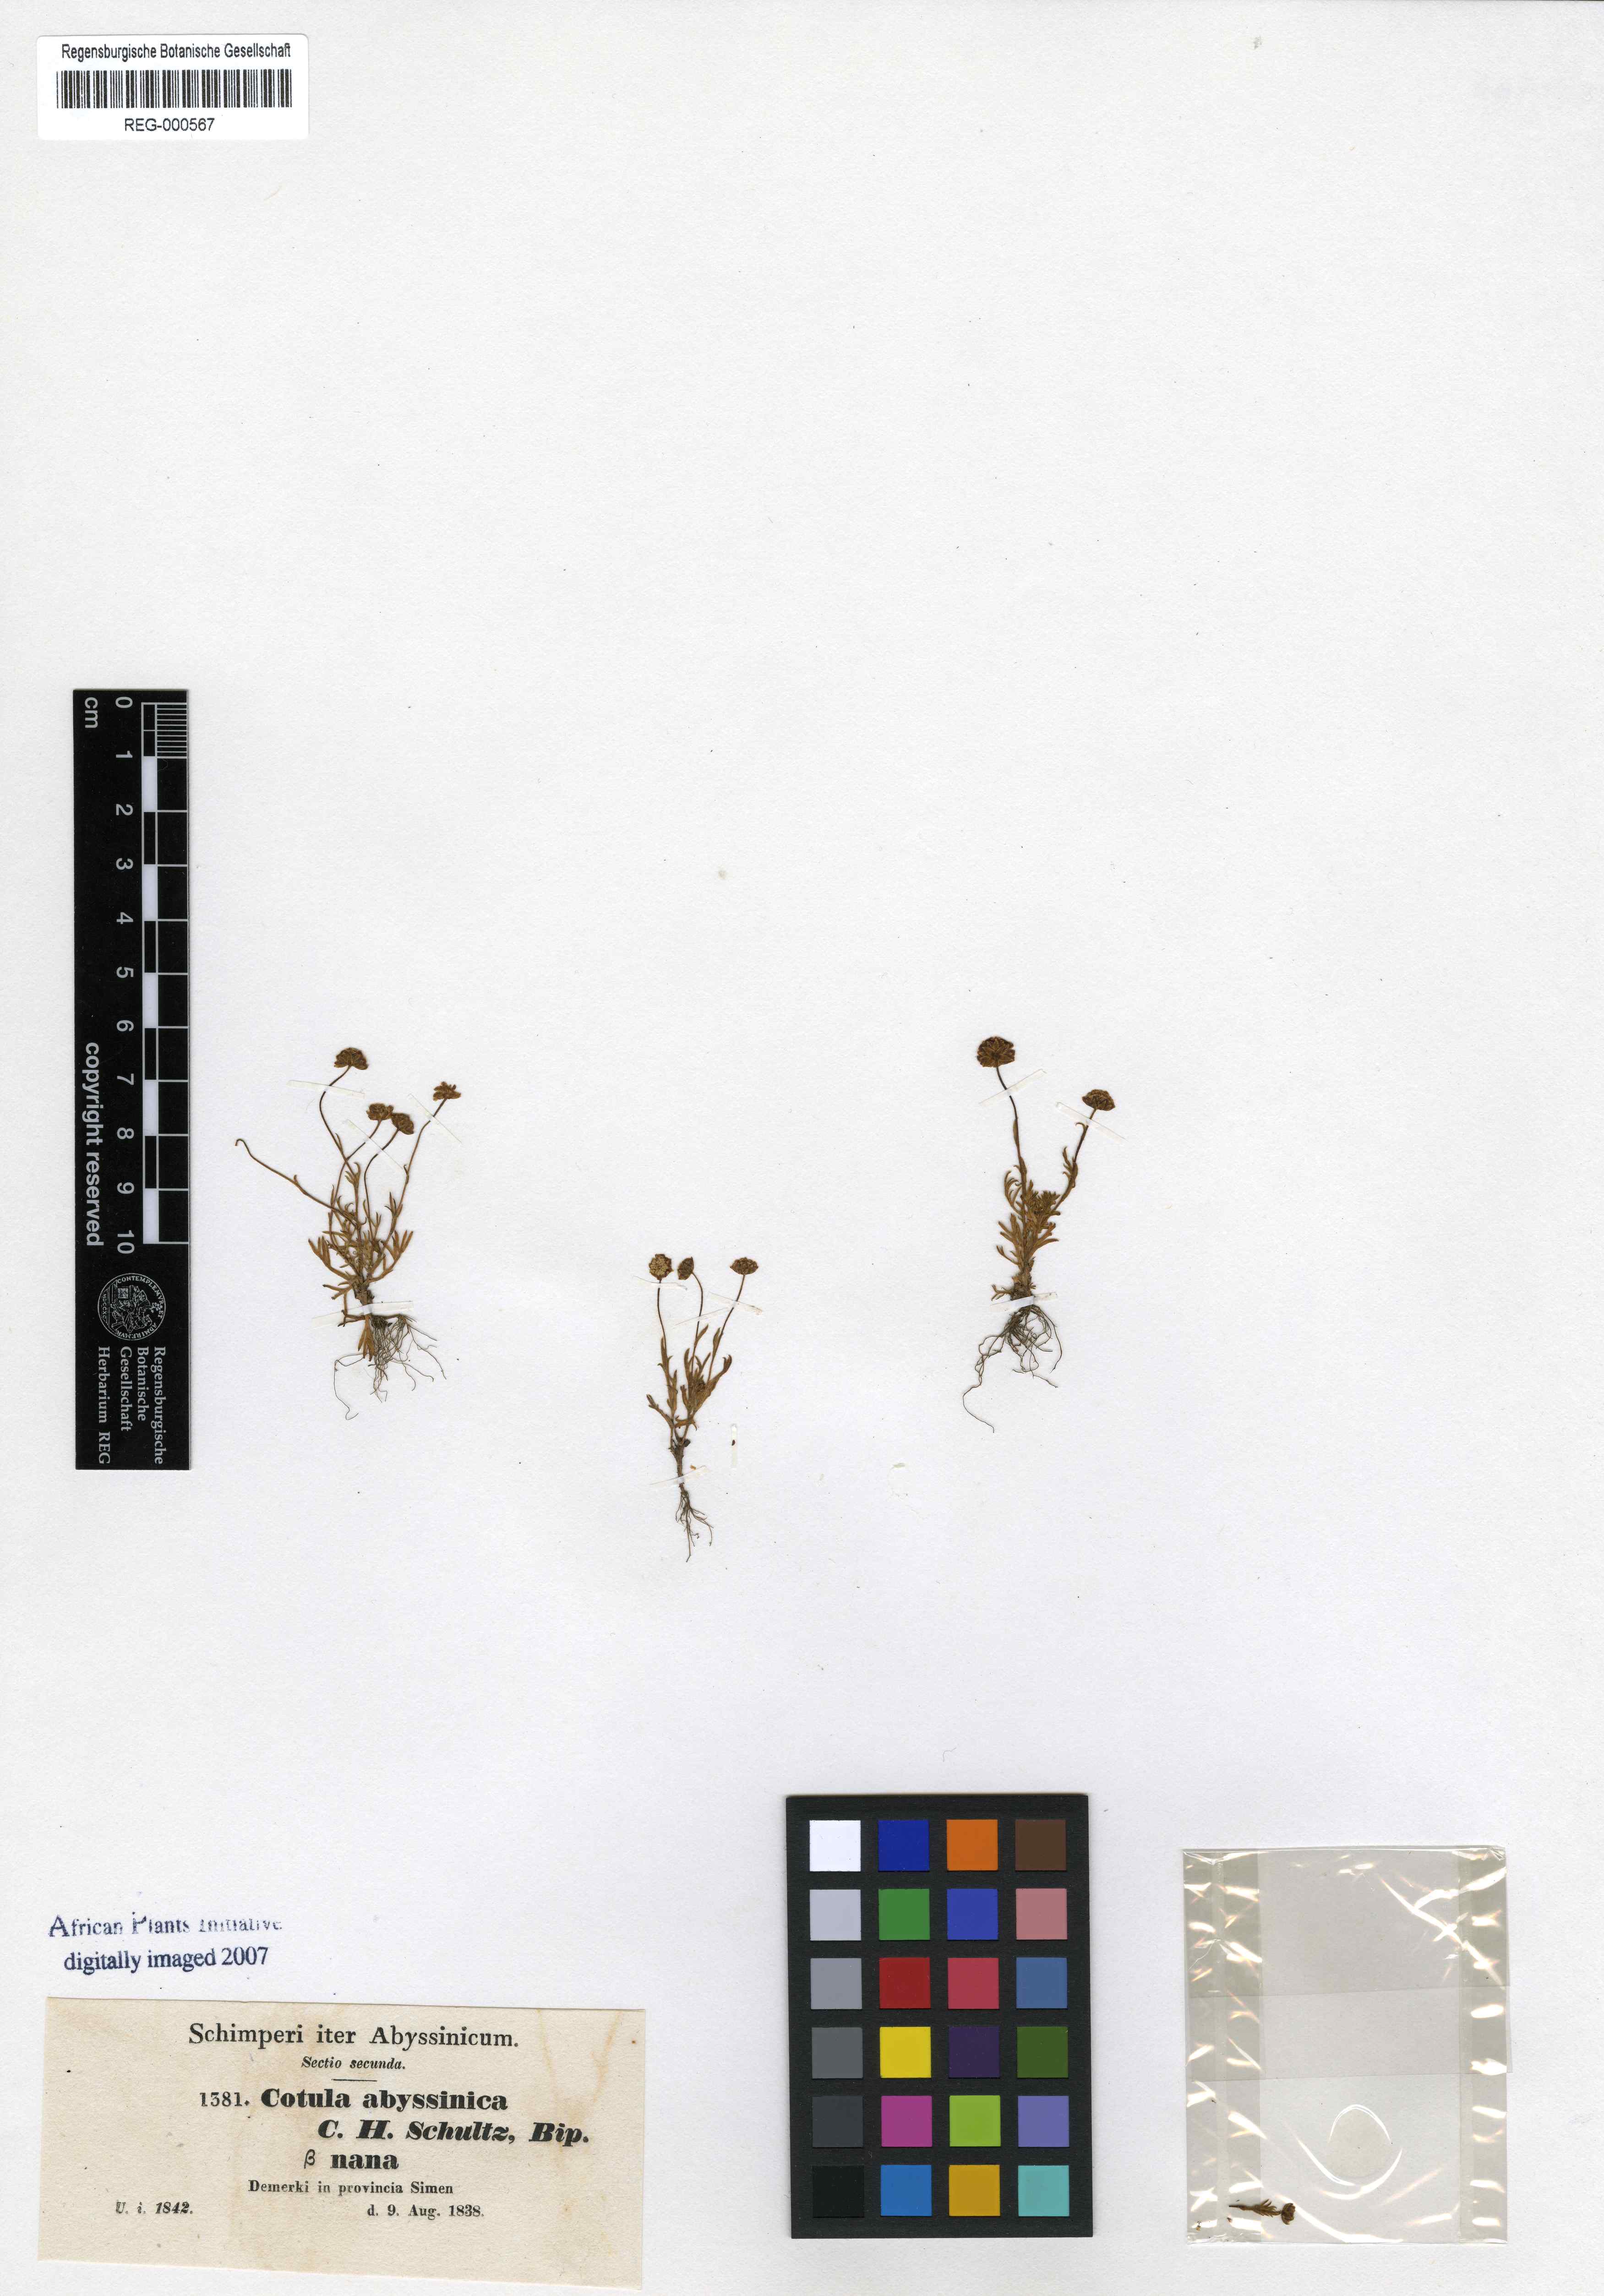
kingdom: Plantae
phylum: Tracheophyta
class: Magnoliopsida
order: Asterales
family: Asteraceae
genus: Cotula
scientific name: Cotula abyssinica
